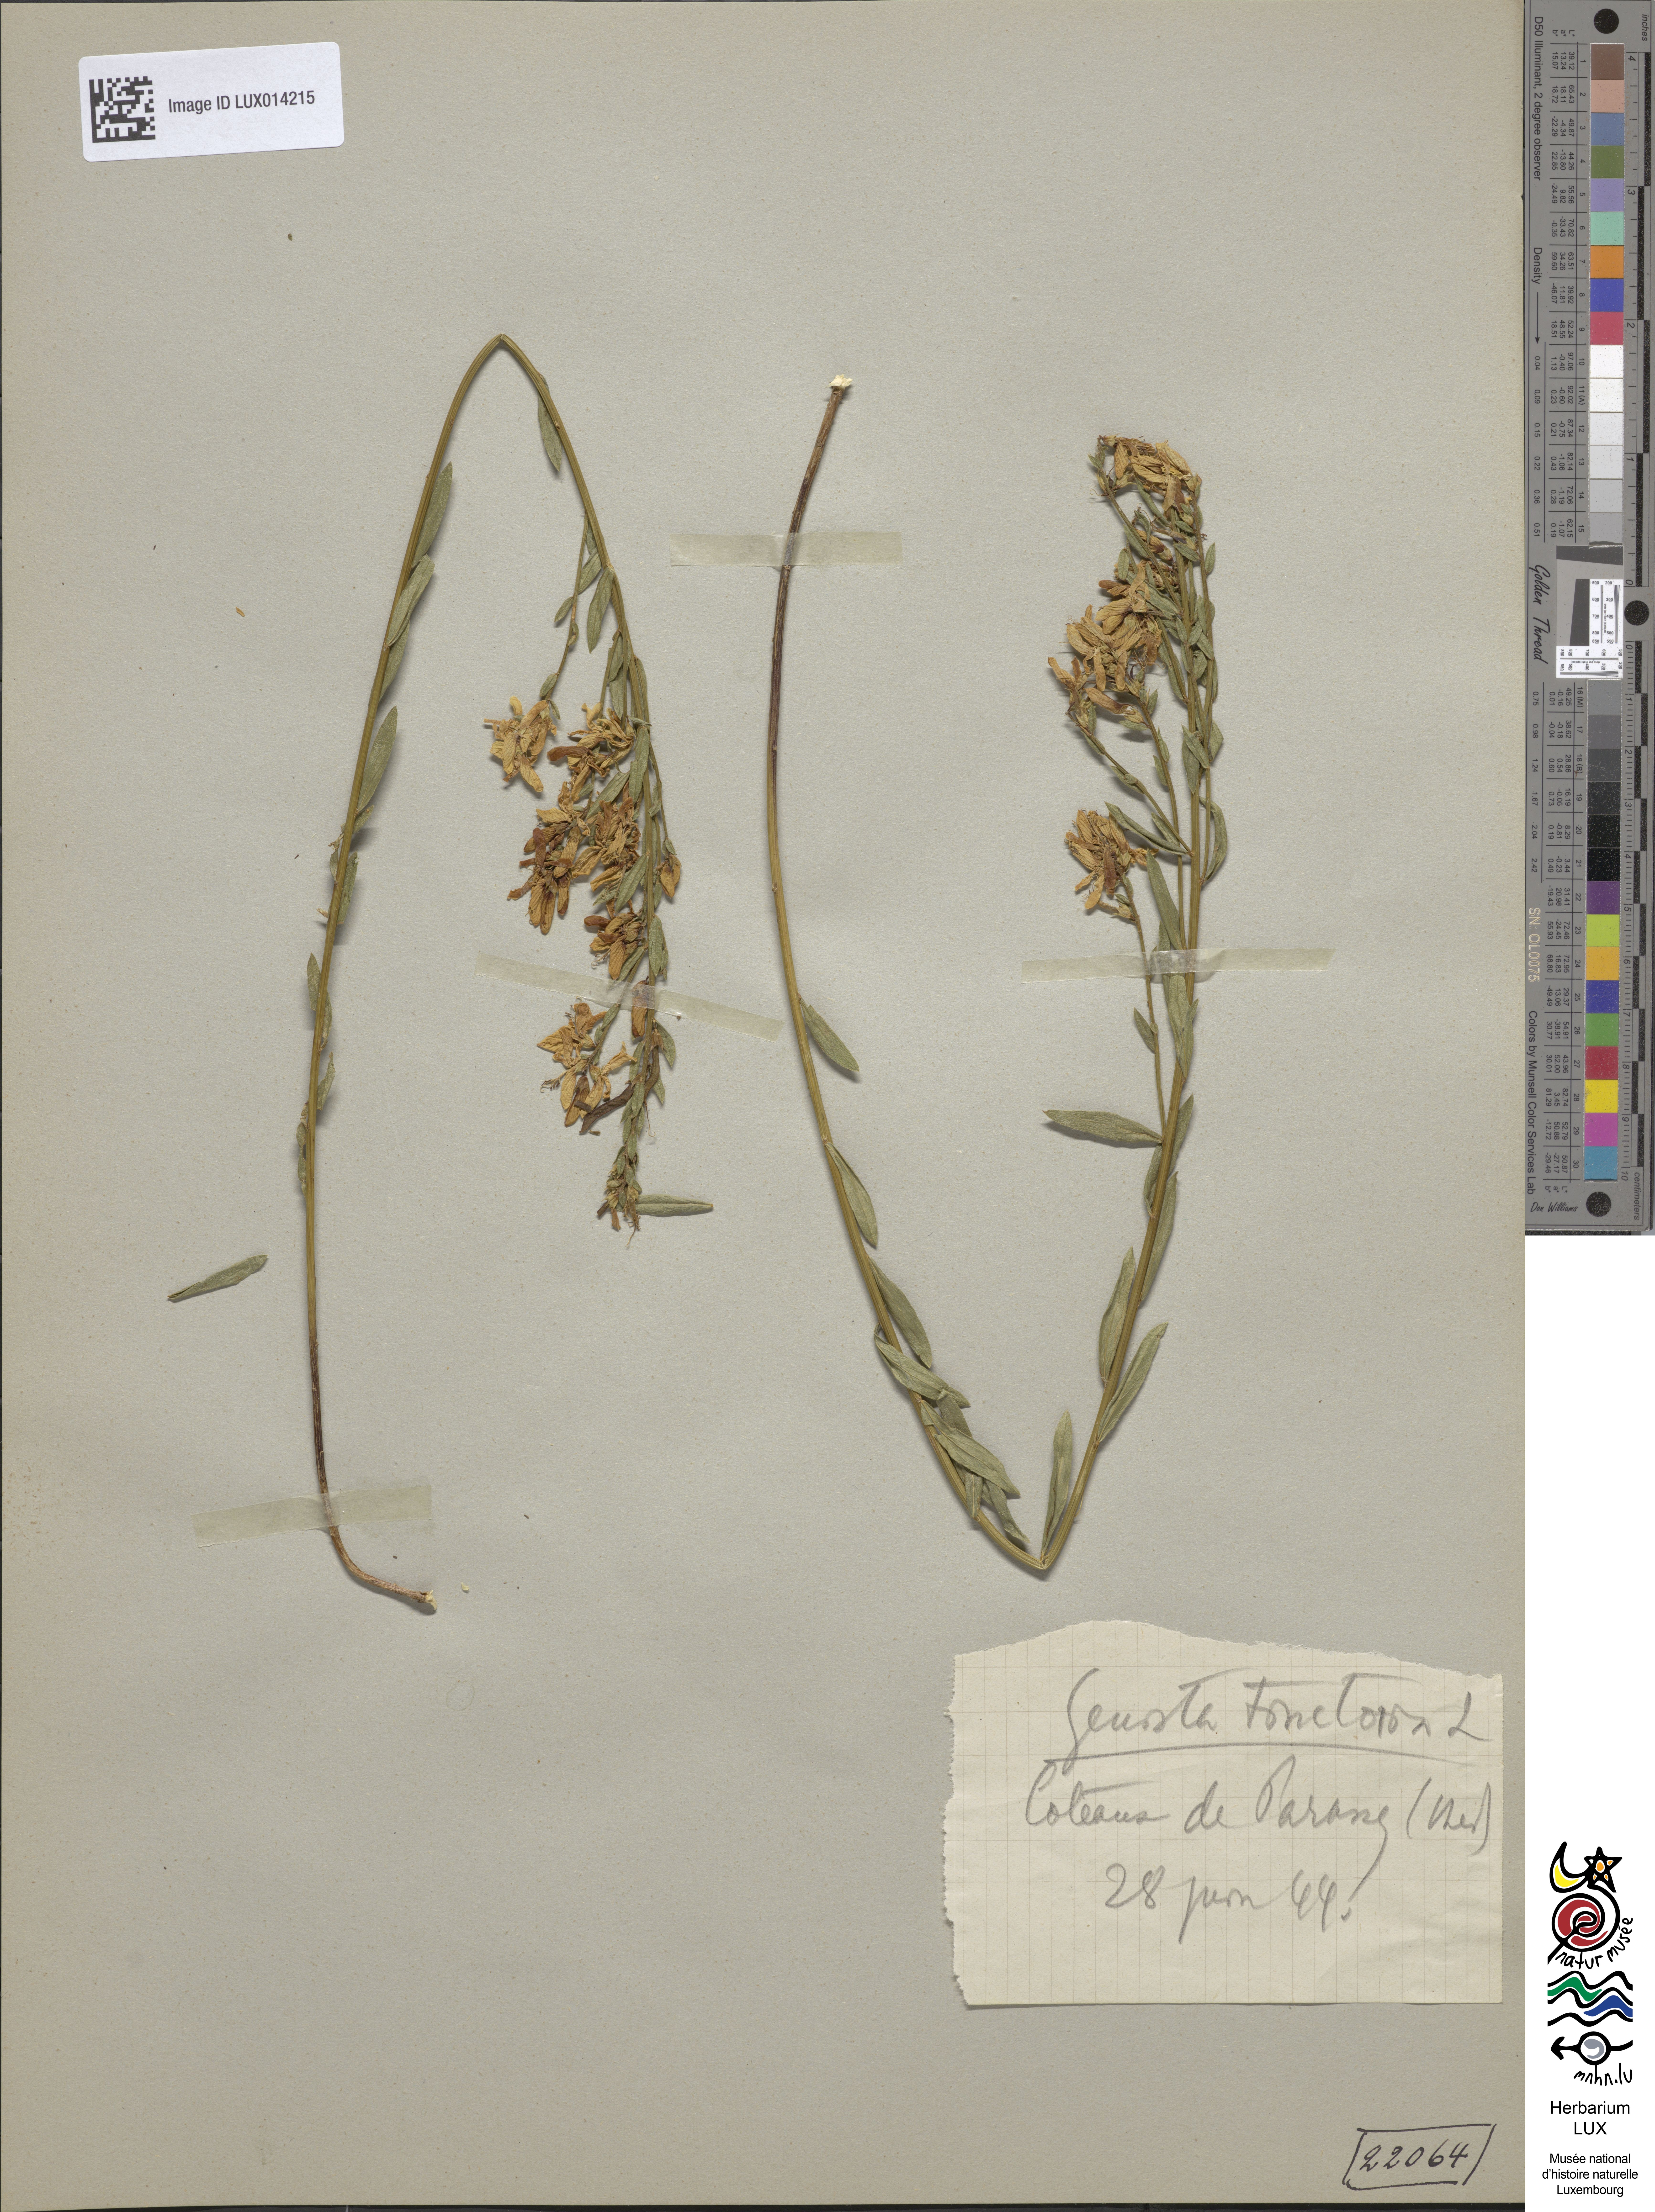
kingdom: Plantae
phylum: Tracheophyta
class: Magnoliopsida
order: Fabales
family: Fabaceae
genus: Genista
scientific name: Genista tinctoria
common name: Dyer's greenweed
